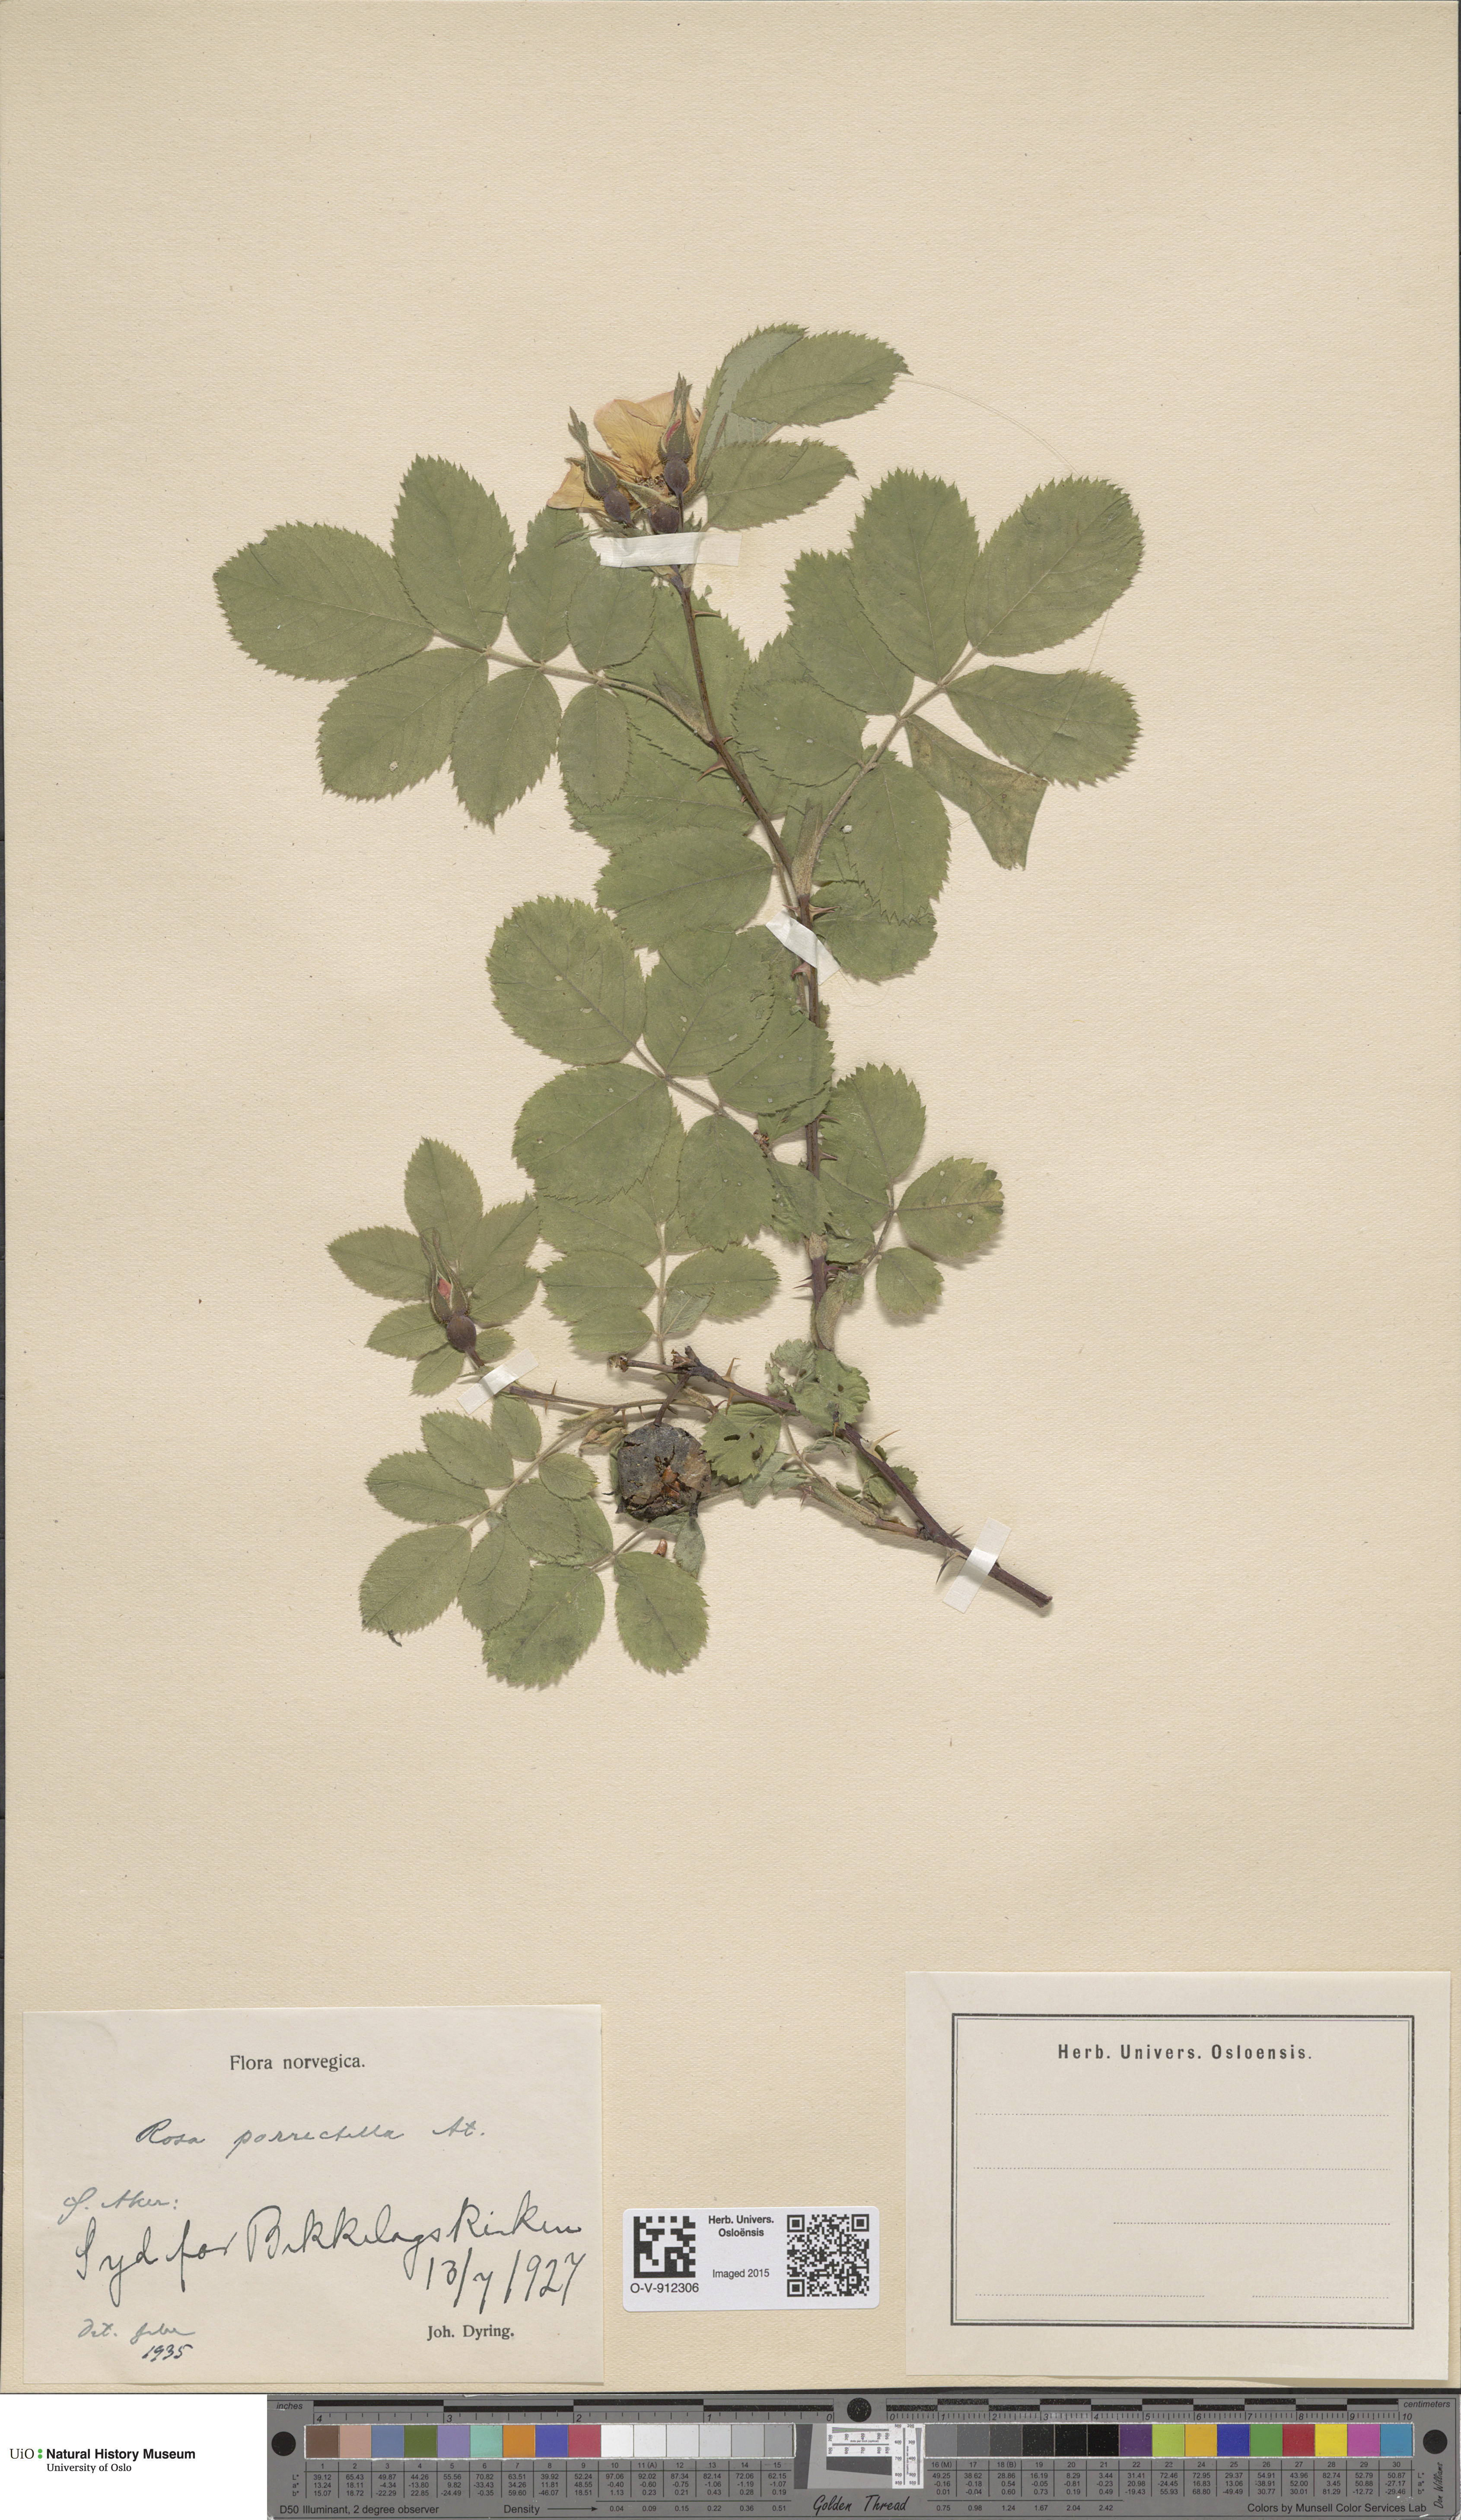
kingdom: Plantae
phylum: Tracheophyta
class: Magnoliopsida
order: Rosales
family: Rosaceae
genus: Rosa
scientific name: Rosa mollis
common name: Rose
